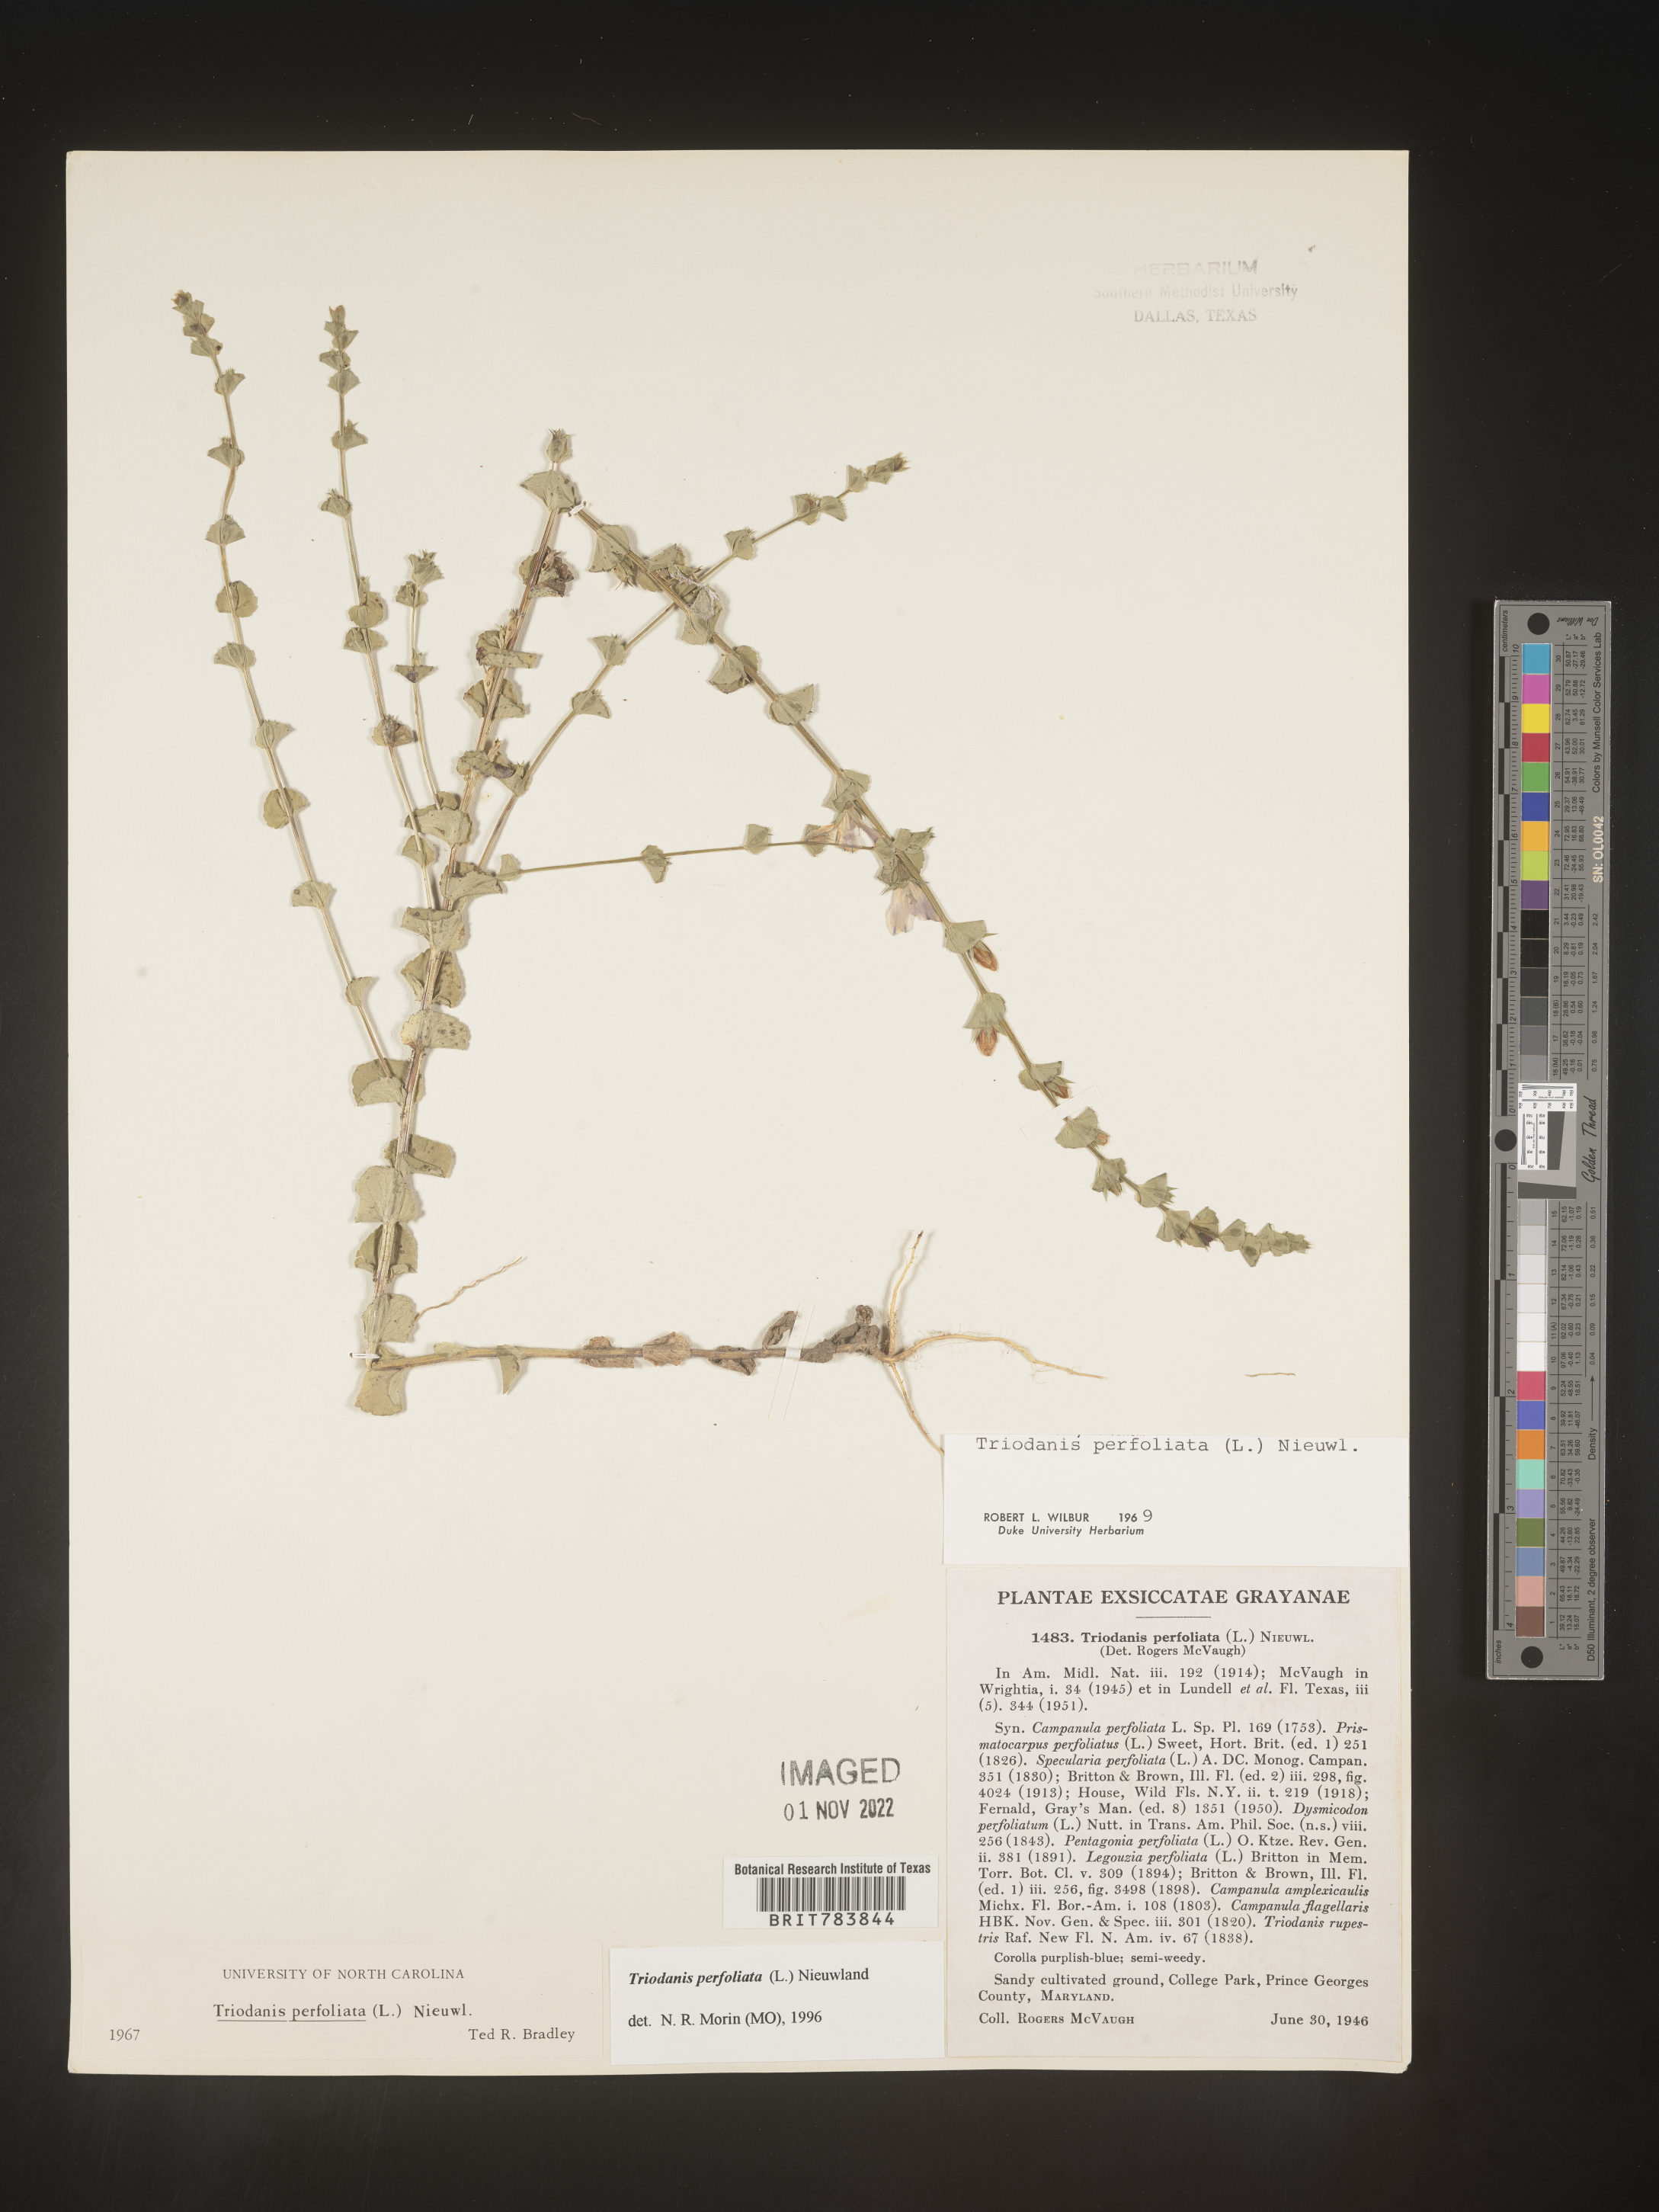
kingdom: Plantae
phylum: Tracheophyta
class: Magnoliopsida
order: Asterales
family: Campanulaceae
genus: Triodanis
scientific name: Triodanis perfoliata
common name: Clasping venus' looking-glass
